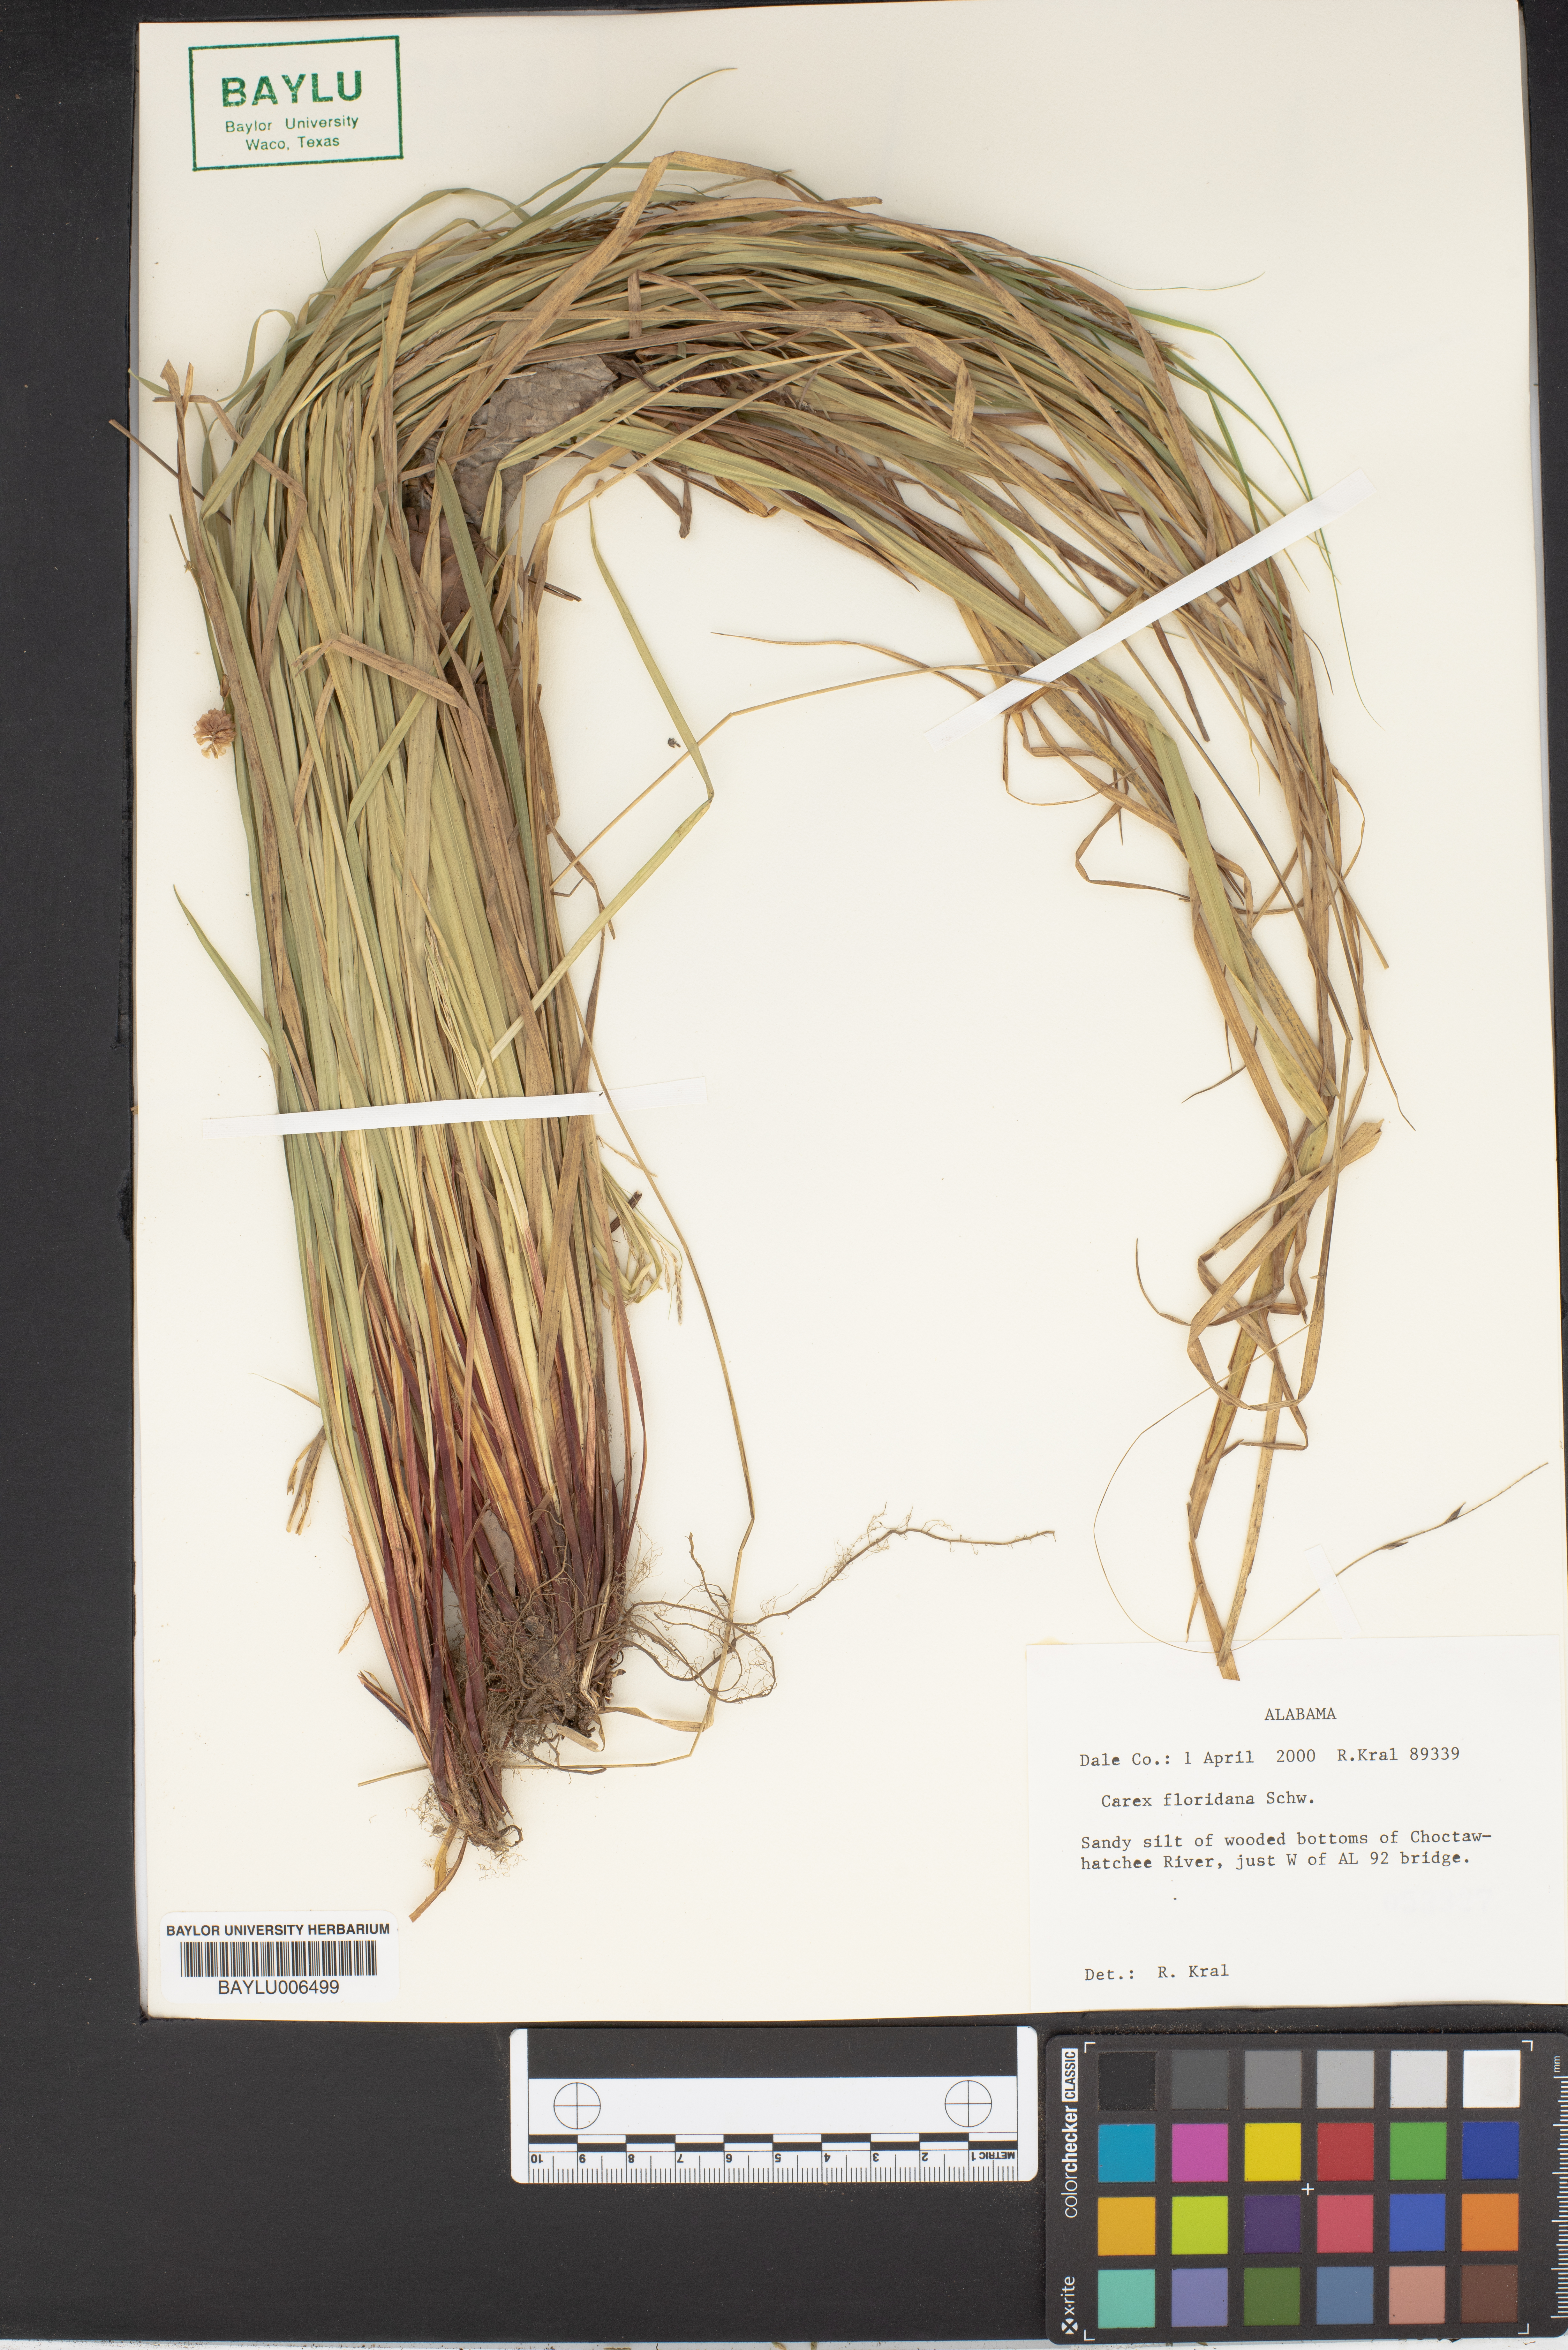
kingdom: Plantae
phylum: Tracheophyta
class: Liliopsida
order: Poales
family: Cyperaceae
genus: Carex
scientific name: Carex floridana
